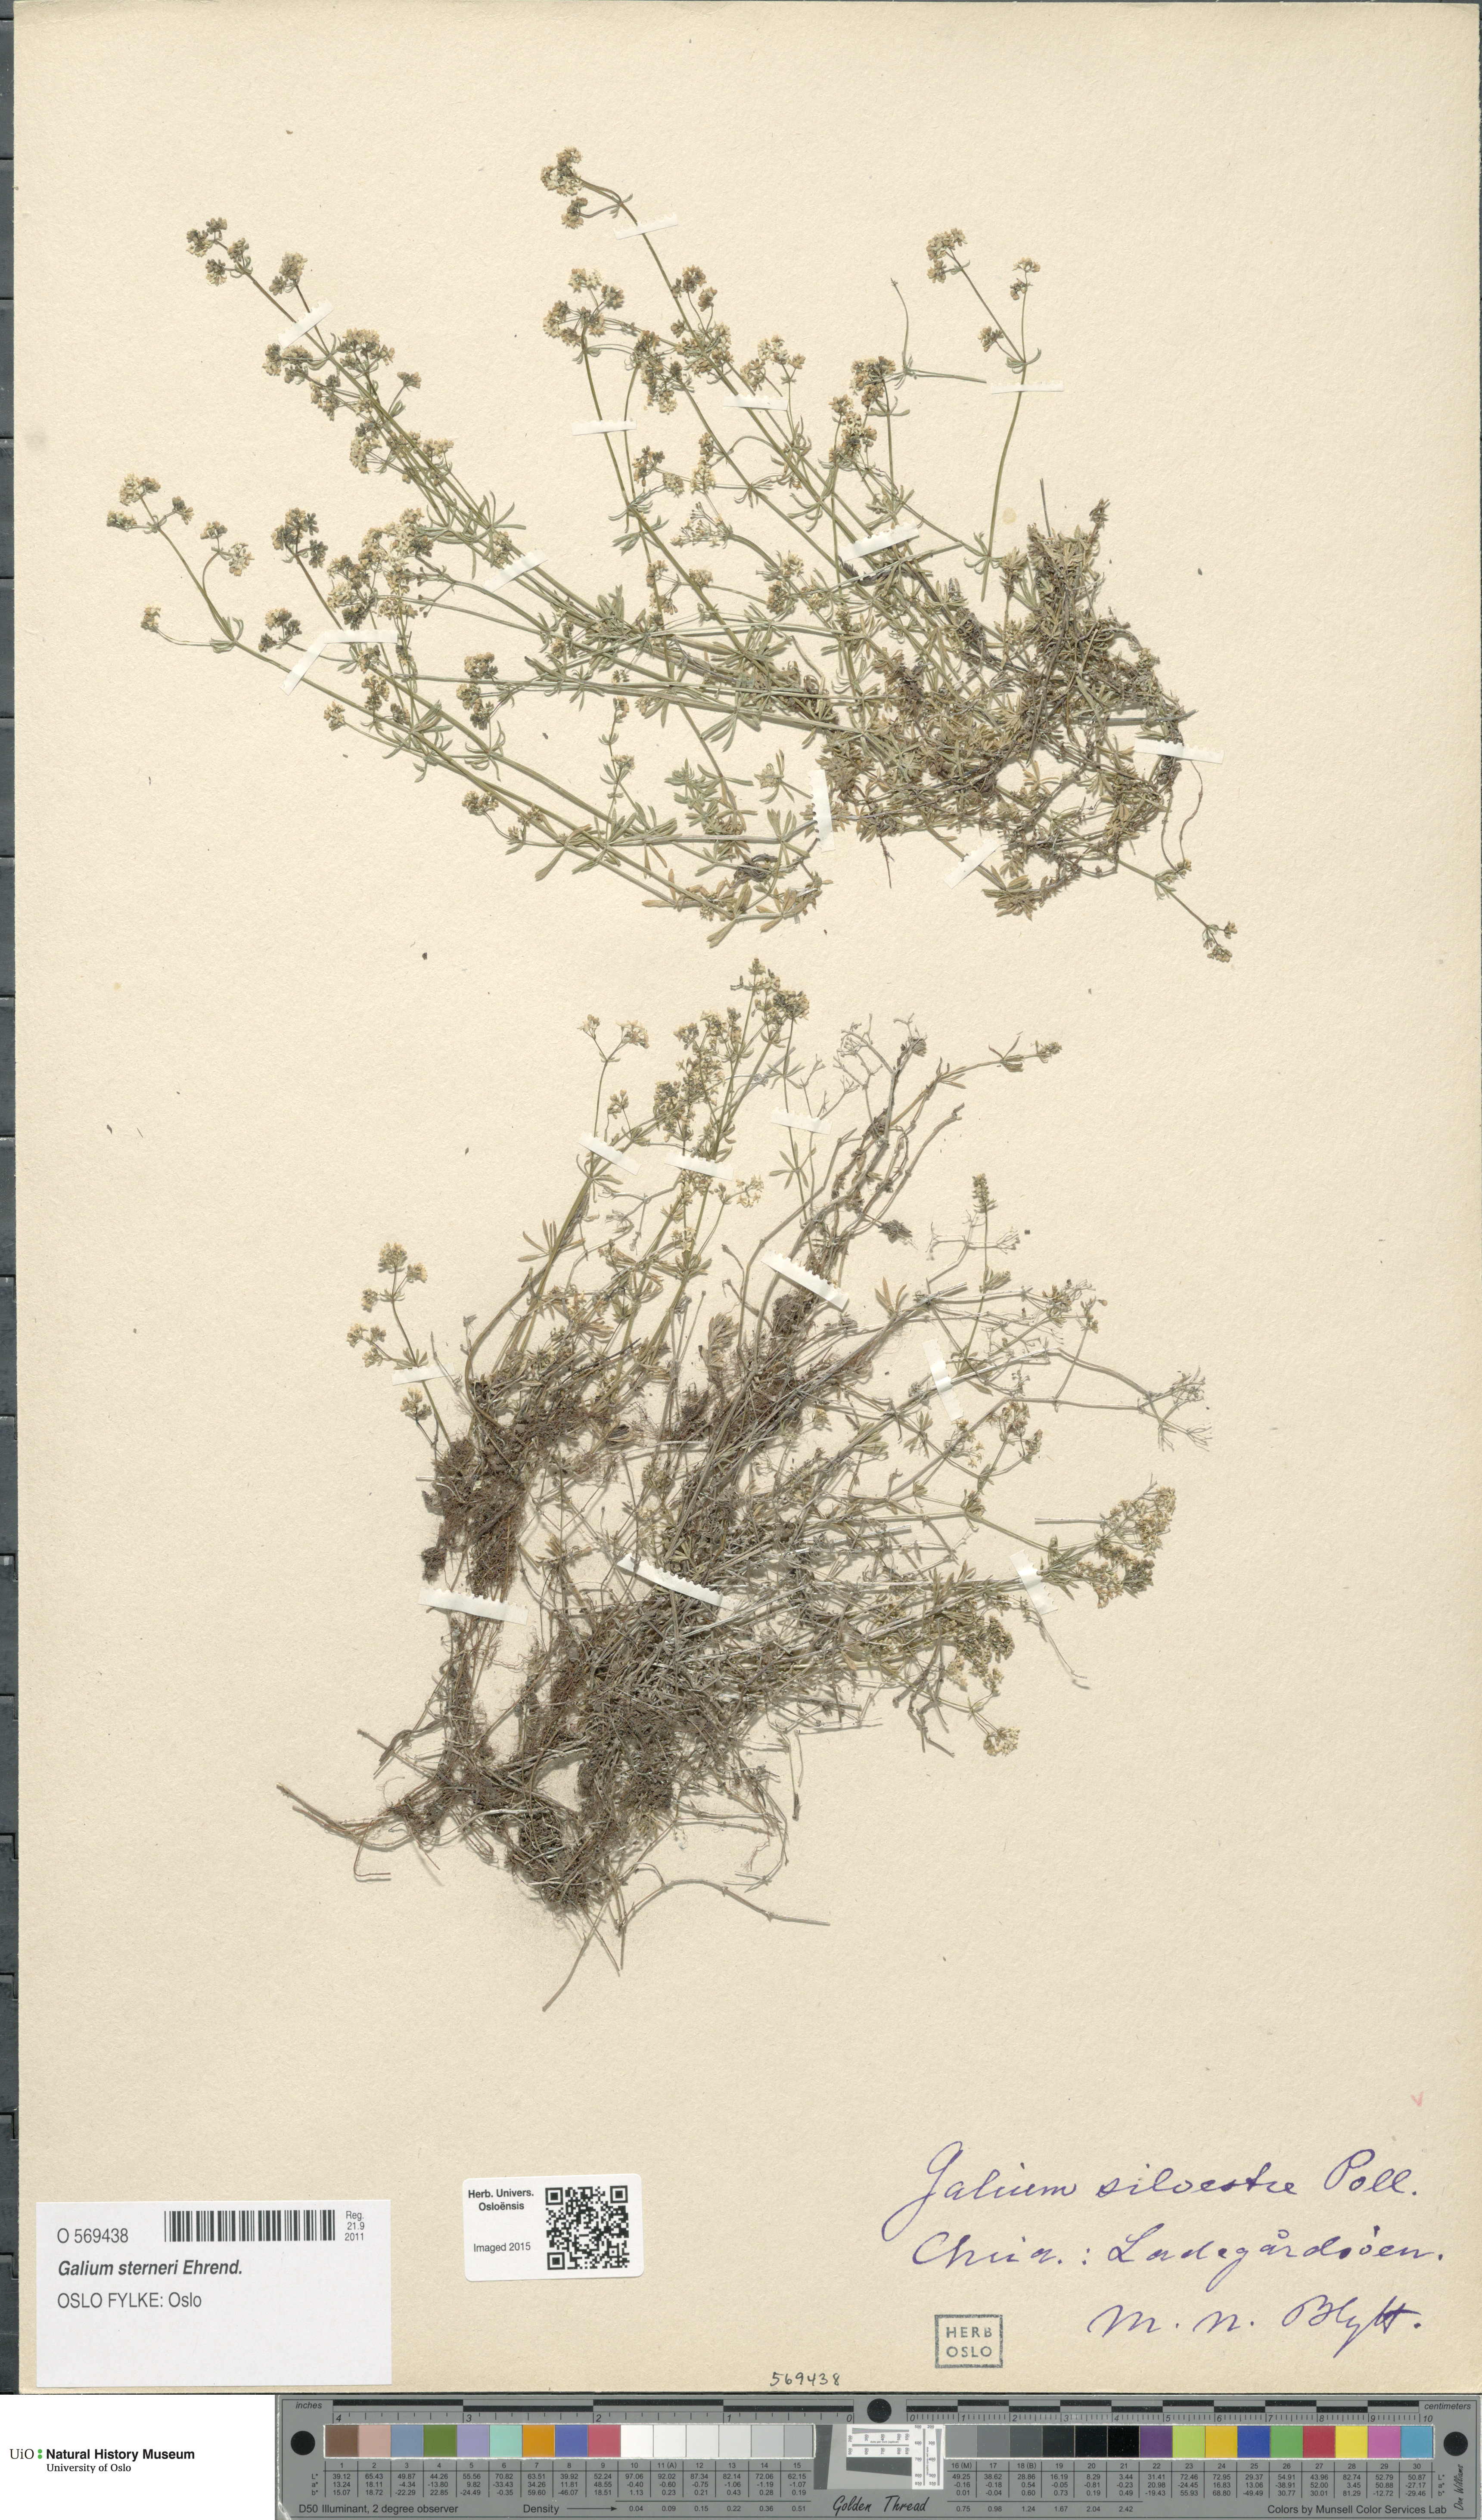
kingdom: Plantae
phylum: Tracheophyta
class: Magnoliopsida
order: Gentianales
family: Rubiaceae
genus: Galium
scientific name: Galium sterneri
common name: Limestone bedstraw
